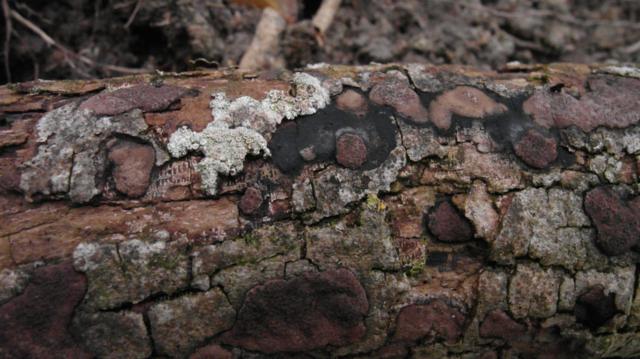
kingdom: Fungi
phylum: Ascomycota
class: Sordariomycetes
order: Xylariales
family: Hypoxylaceae
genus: Hypoxylon
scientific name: Hypoxylon petriniae
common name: nedsænket kulbær
